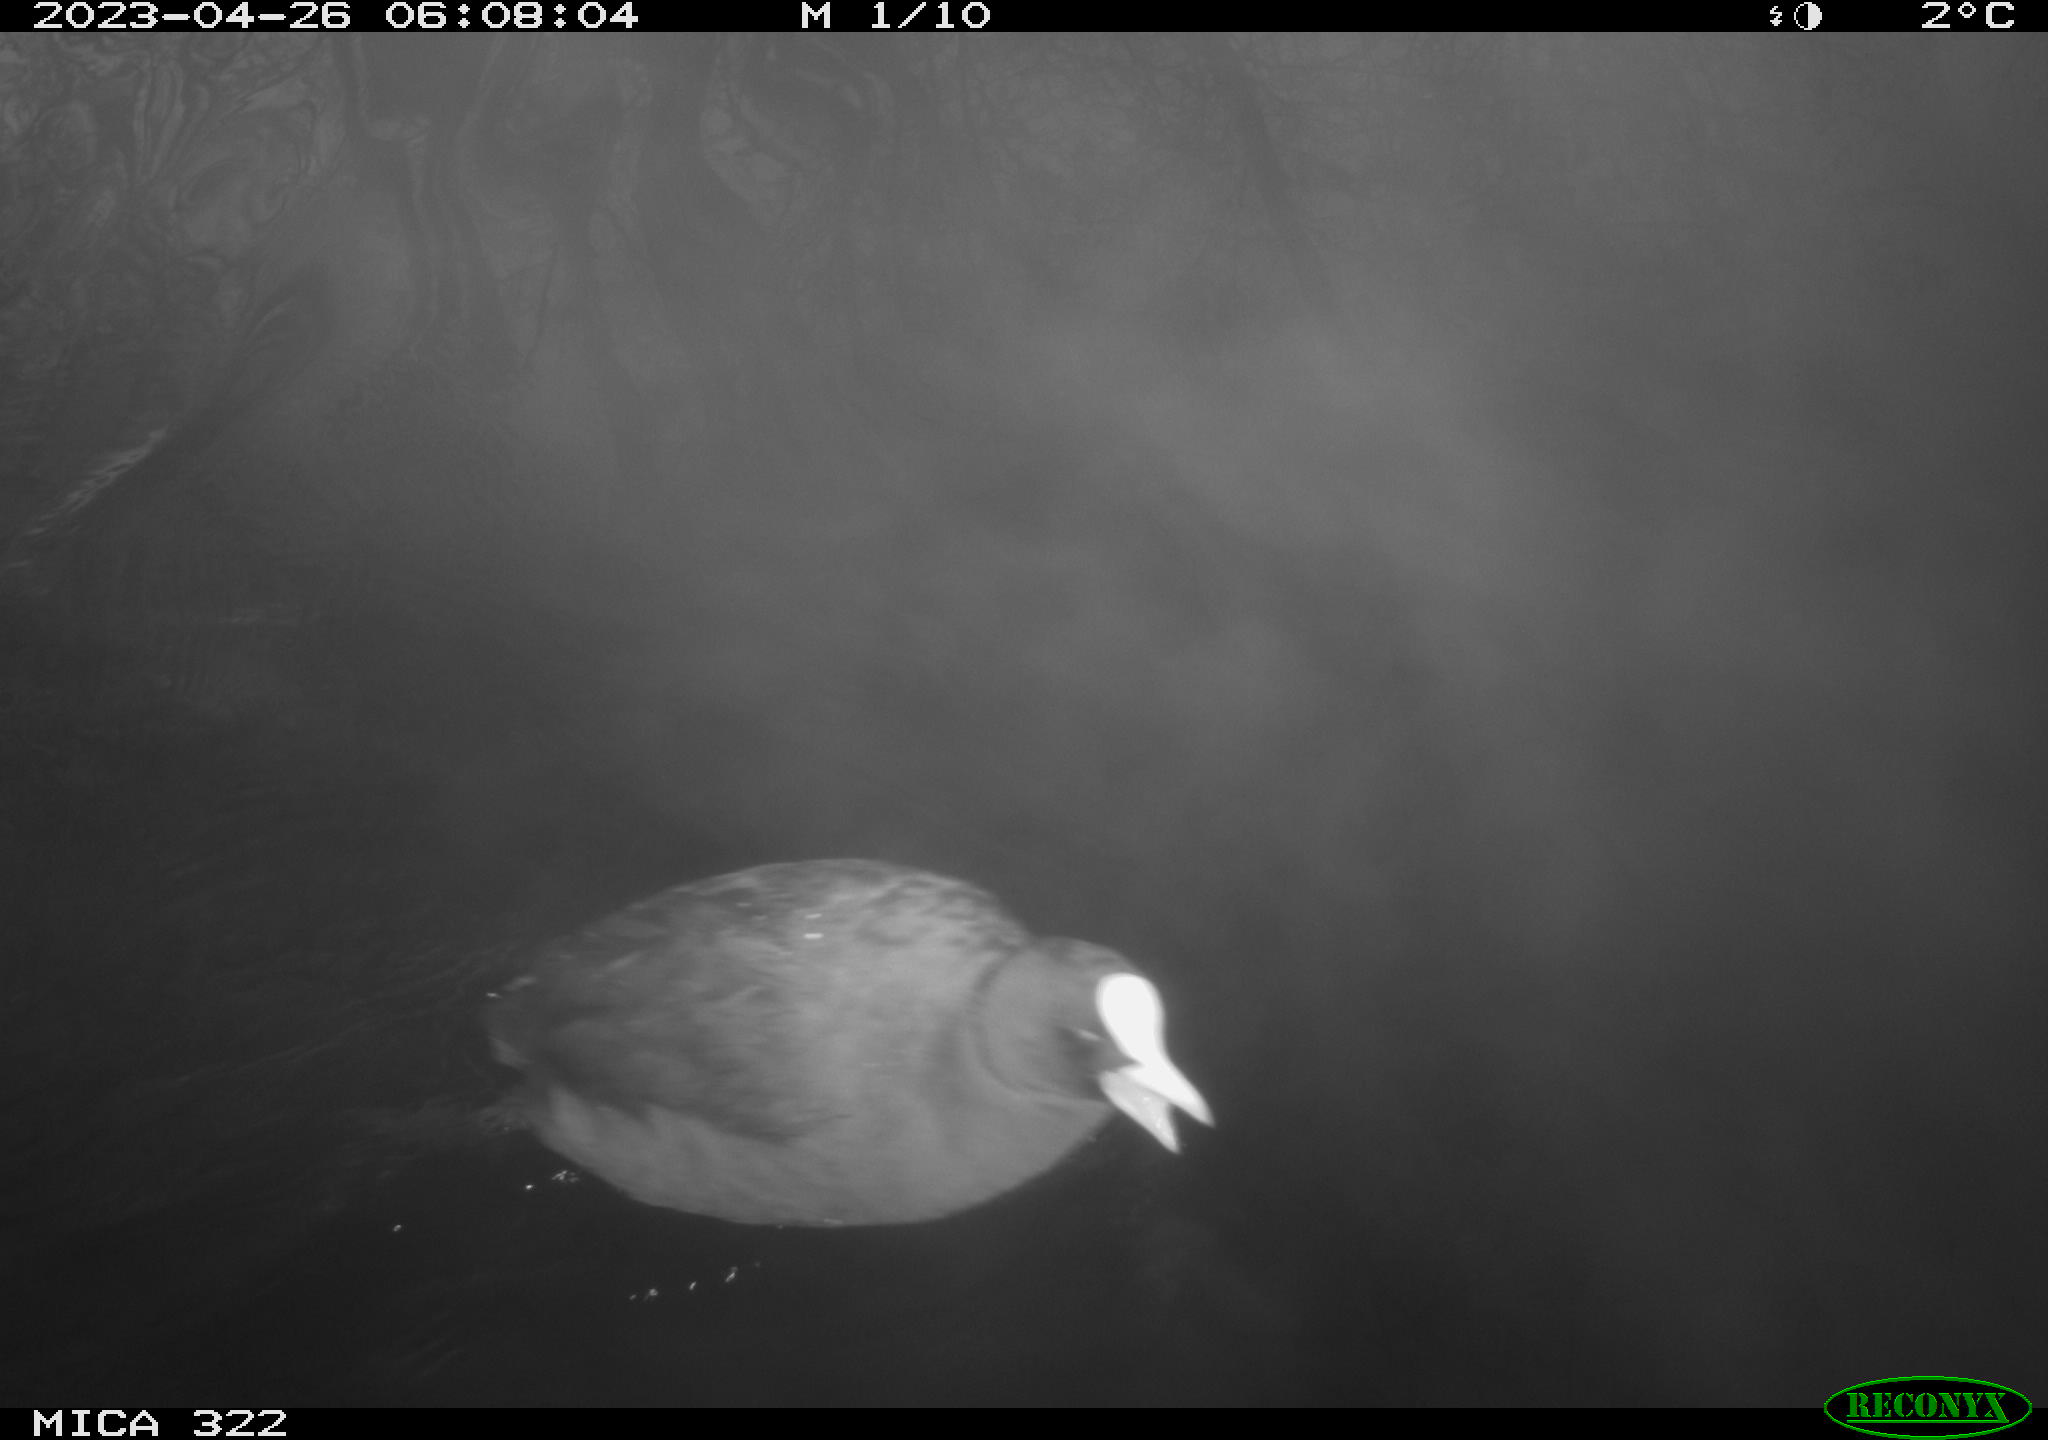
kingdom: Animalia
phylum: Chordata
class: Aves
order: Gruiformes
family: Rallidae
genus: Fulica
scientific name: Fulica atra
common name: Eurasian coot
